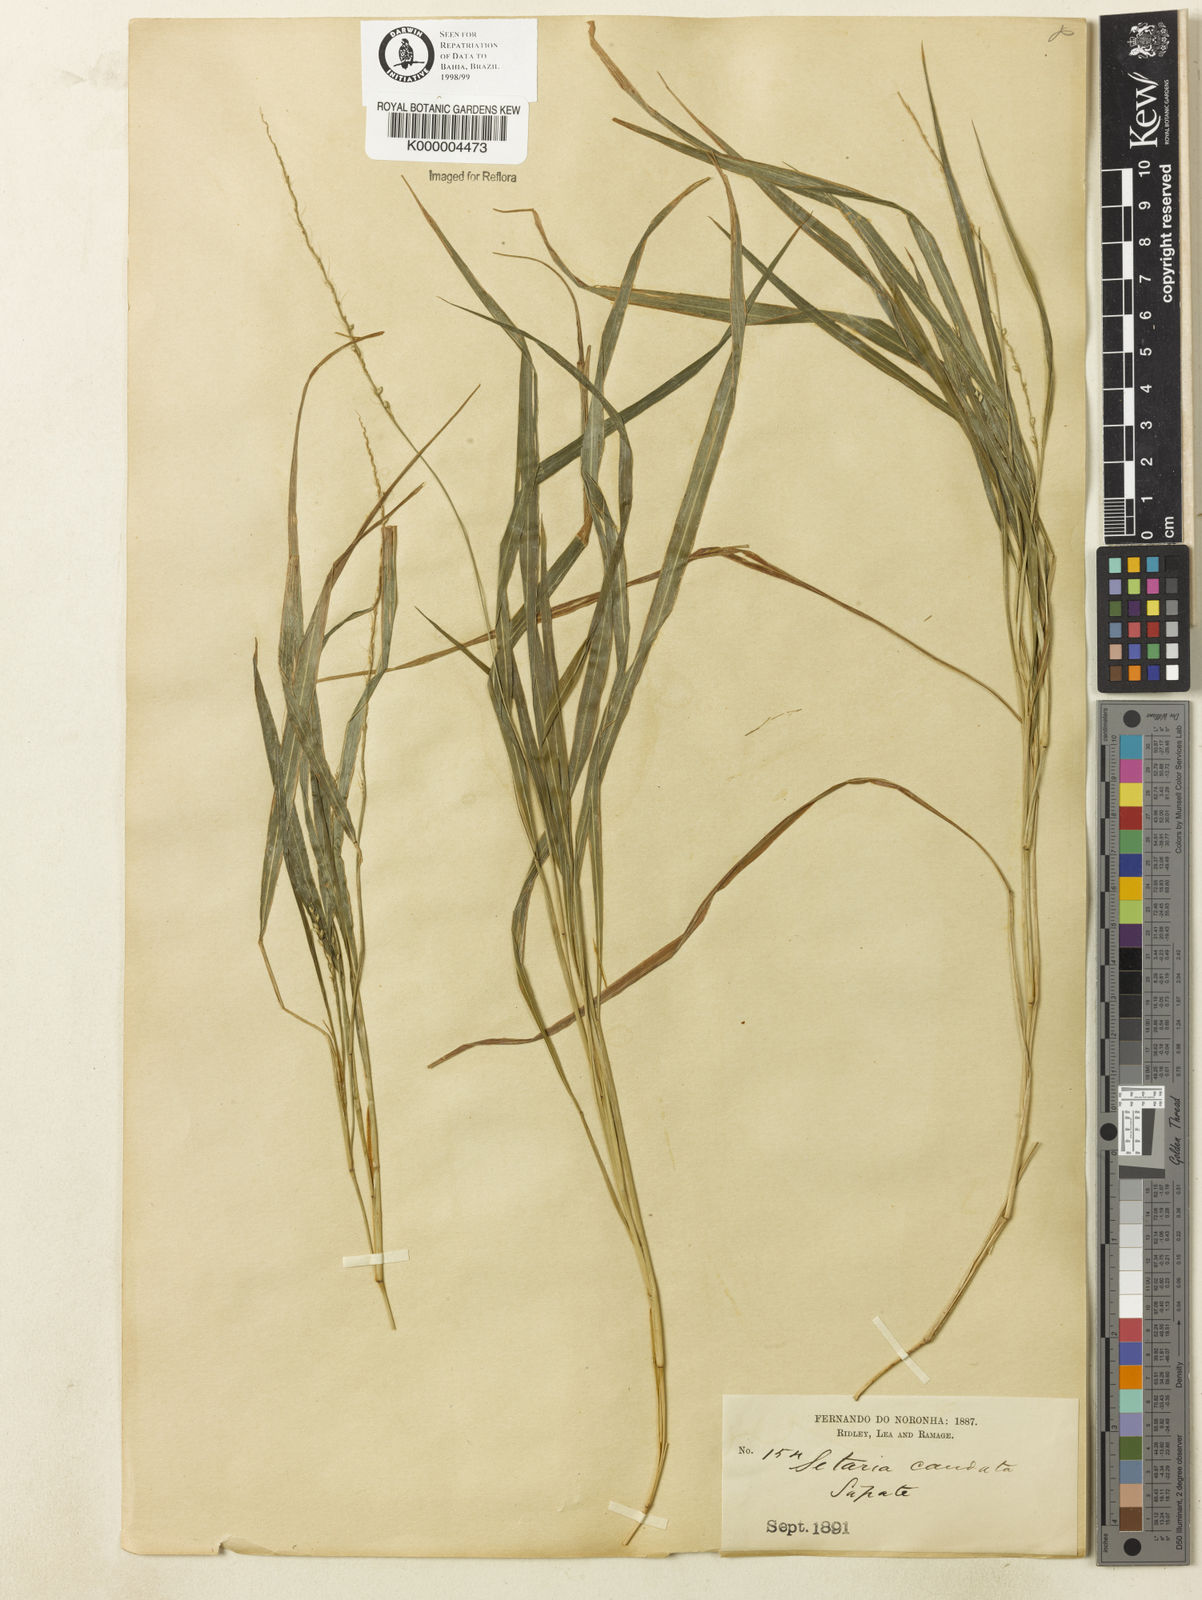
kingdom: Plantae
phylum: Tracheophyta
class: Liliopsida
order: Poales
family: Poaceae
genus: Setaria
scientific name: Setaria setosa
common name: West indies bristle grass
